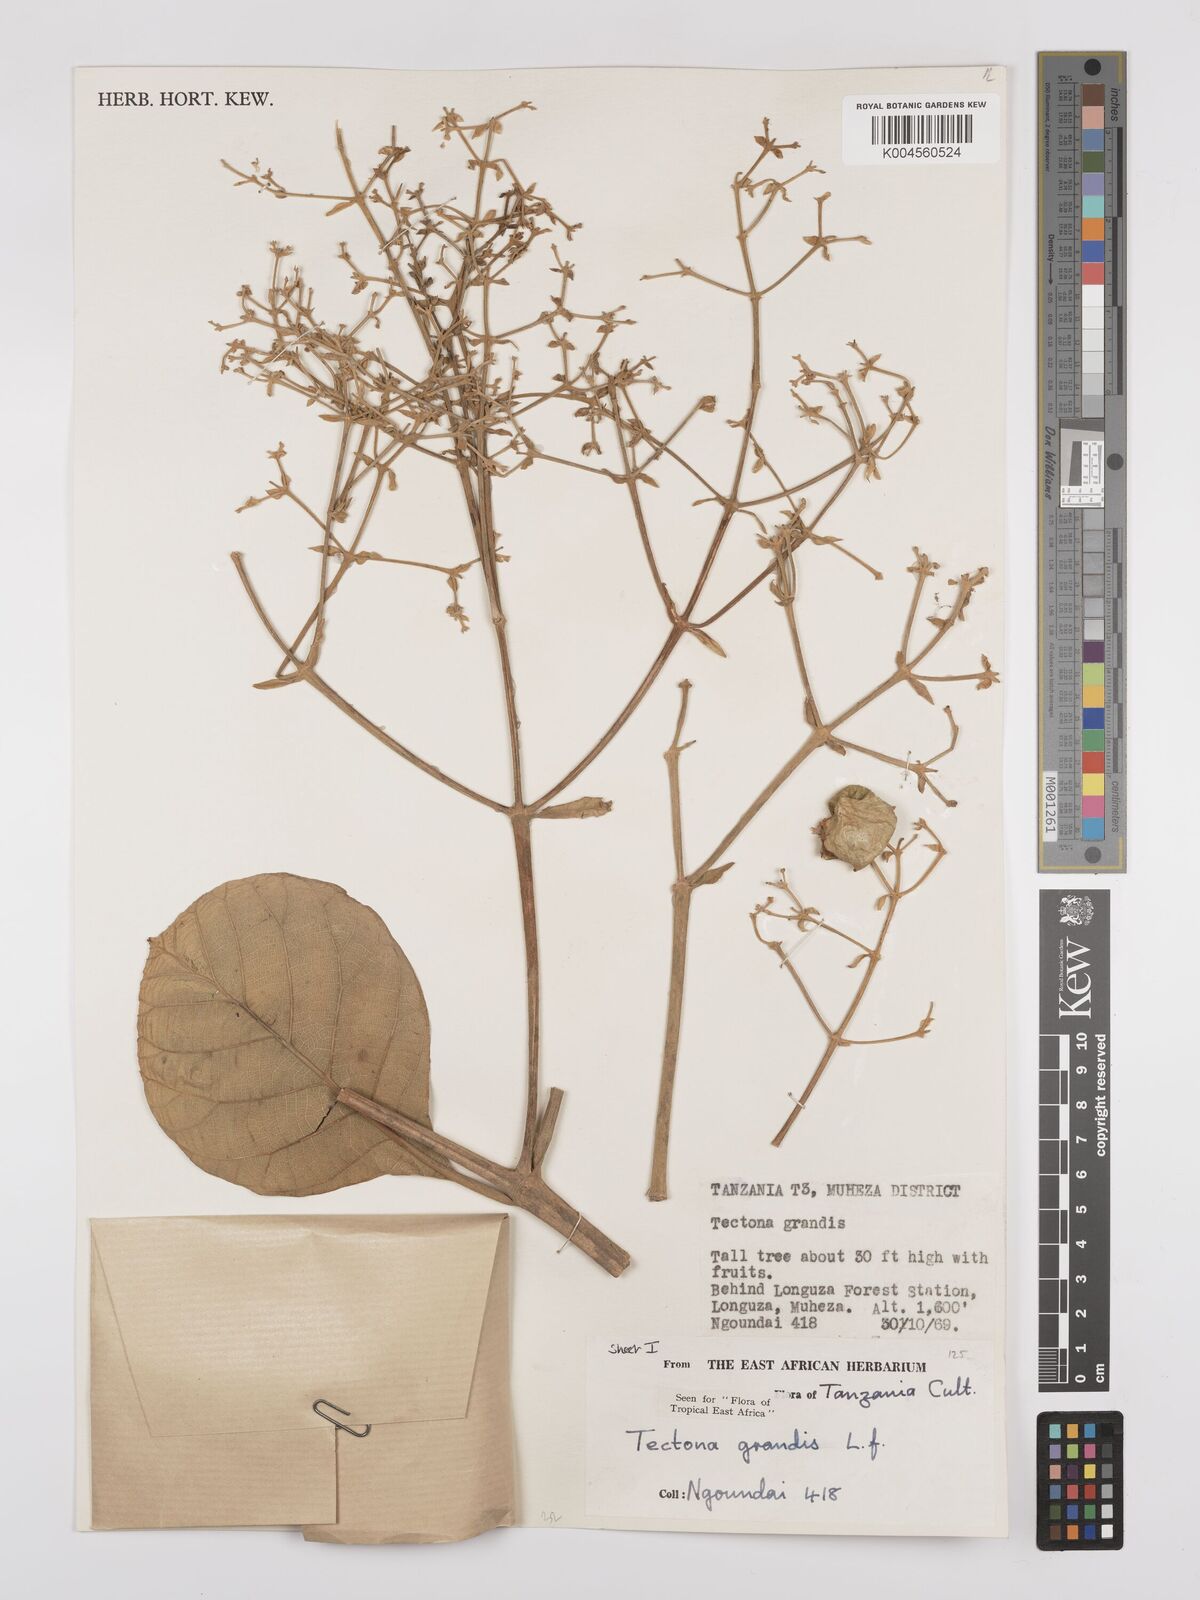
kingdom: Plantae
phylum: Tracheophyta
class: Magnoliopsida
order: Lamiales
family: Lamiaceae
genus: Tectona
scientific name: Tectona grandis
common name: Teak
